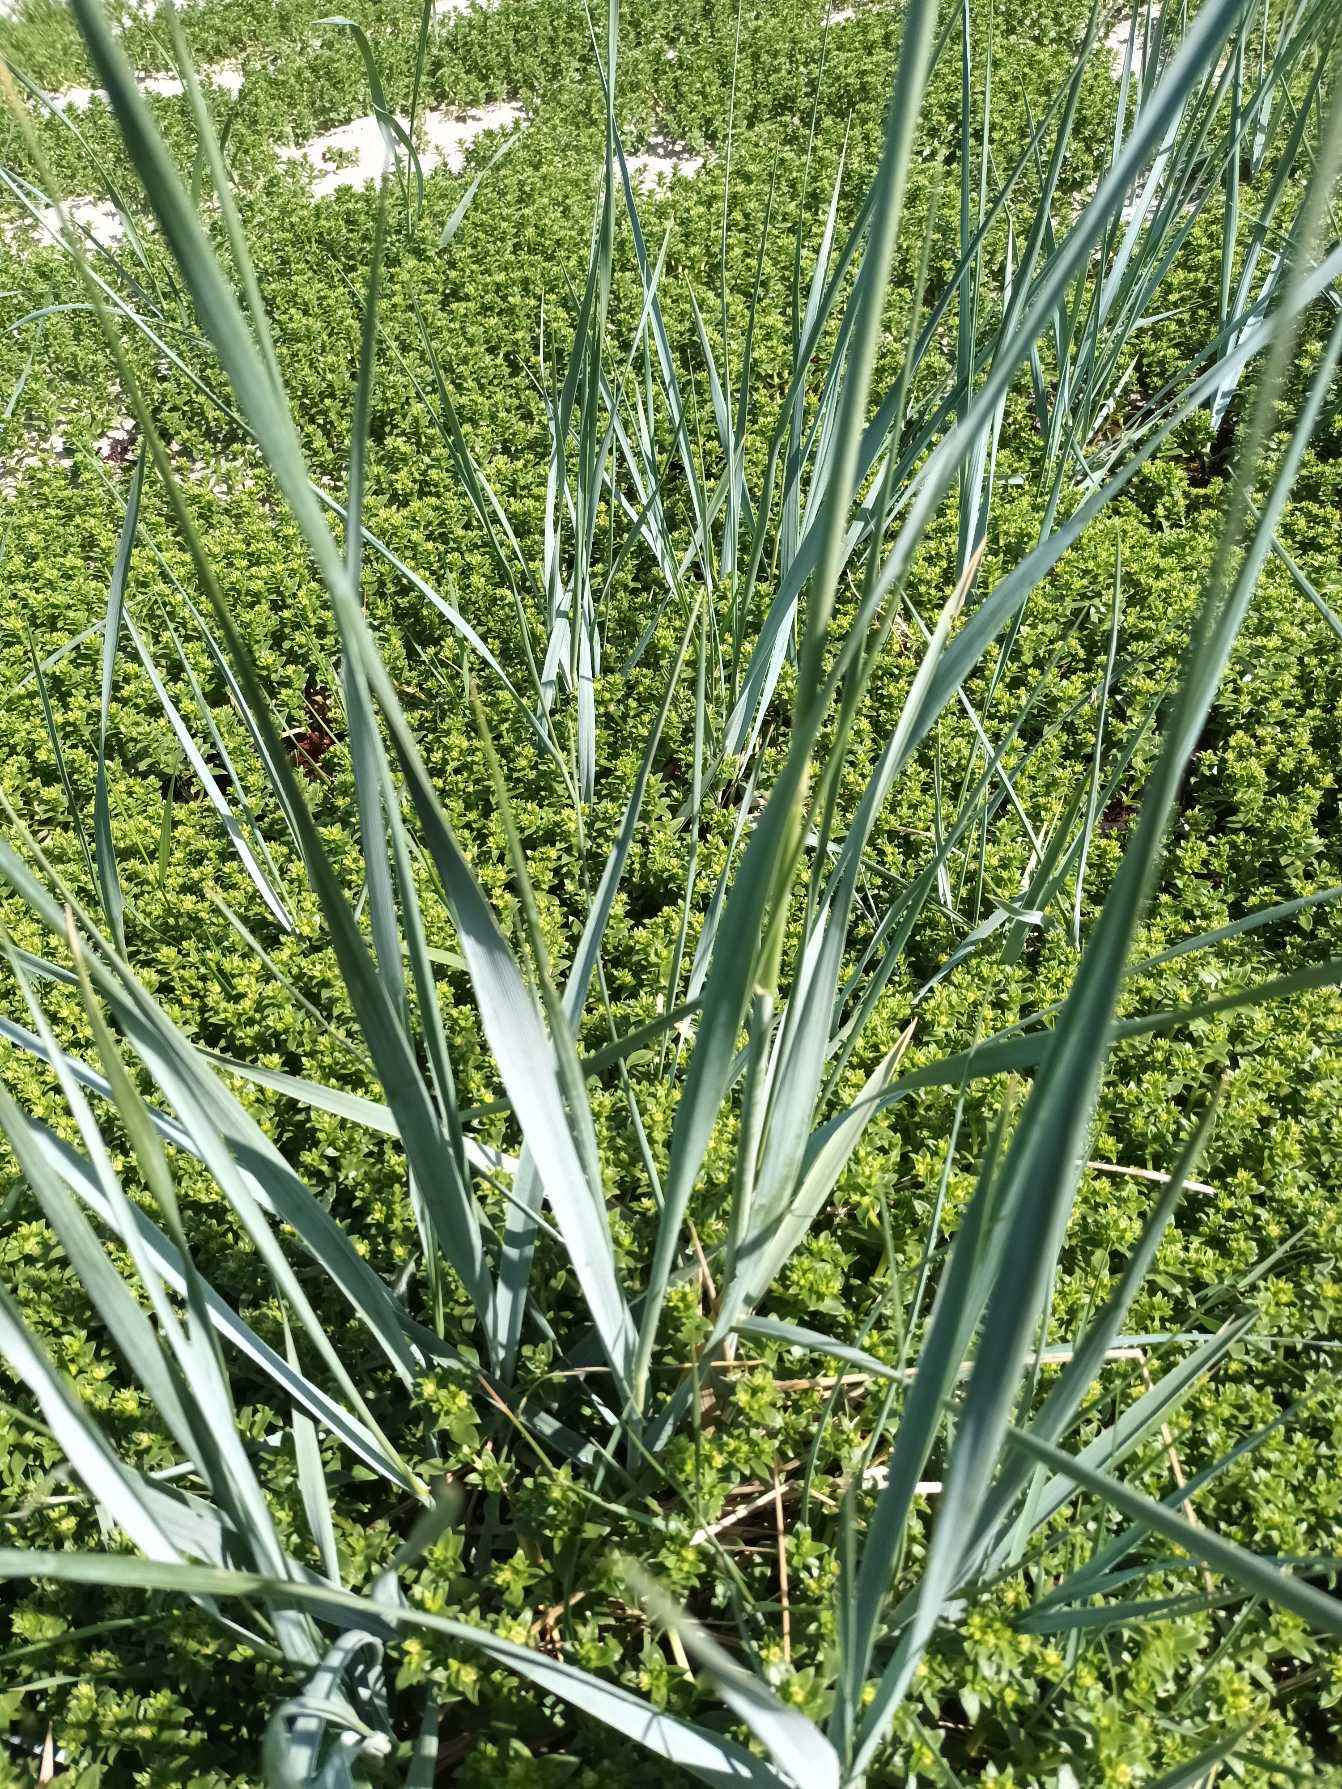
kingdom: Plantae
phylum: Tracheophyta
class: Liliopsida
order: Poales
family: Poaceae
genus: Leymus
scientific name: Leymus arenarius
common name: Marehalm
